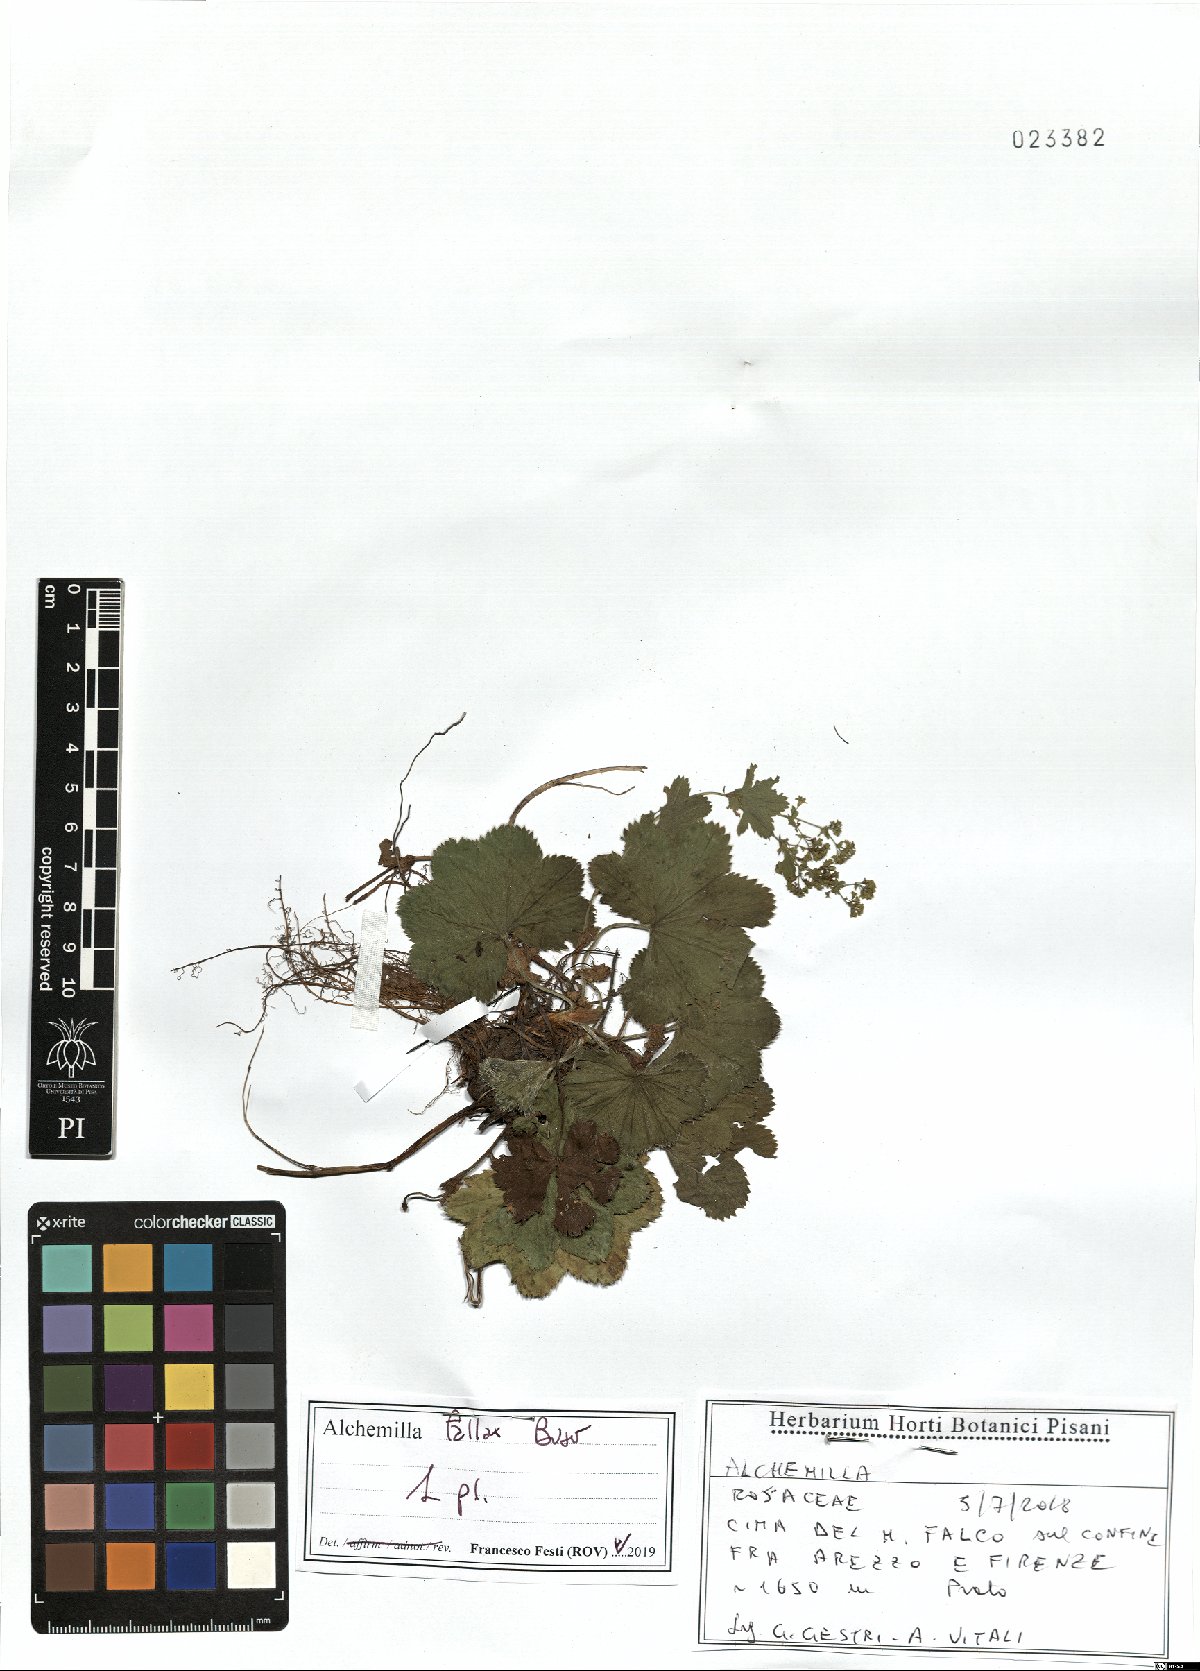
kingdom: Plantae
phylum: Tracheophyta
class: Magnoliopsida
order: Rosales
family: Rosaceae
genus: Alchemilla
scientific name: Alchemilla fallax
